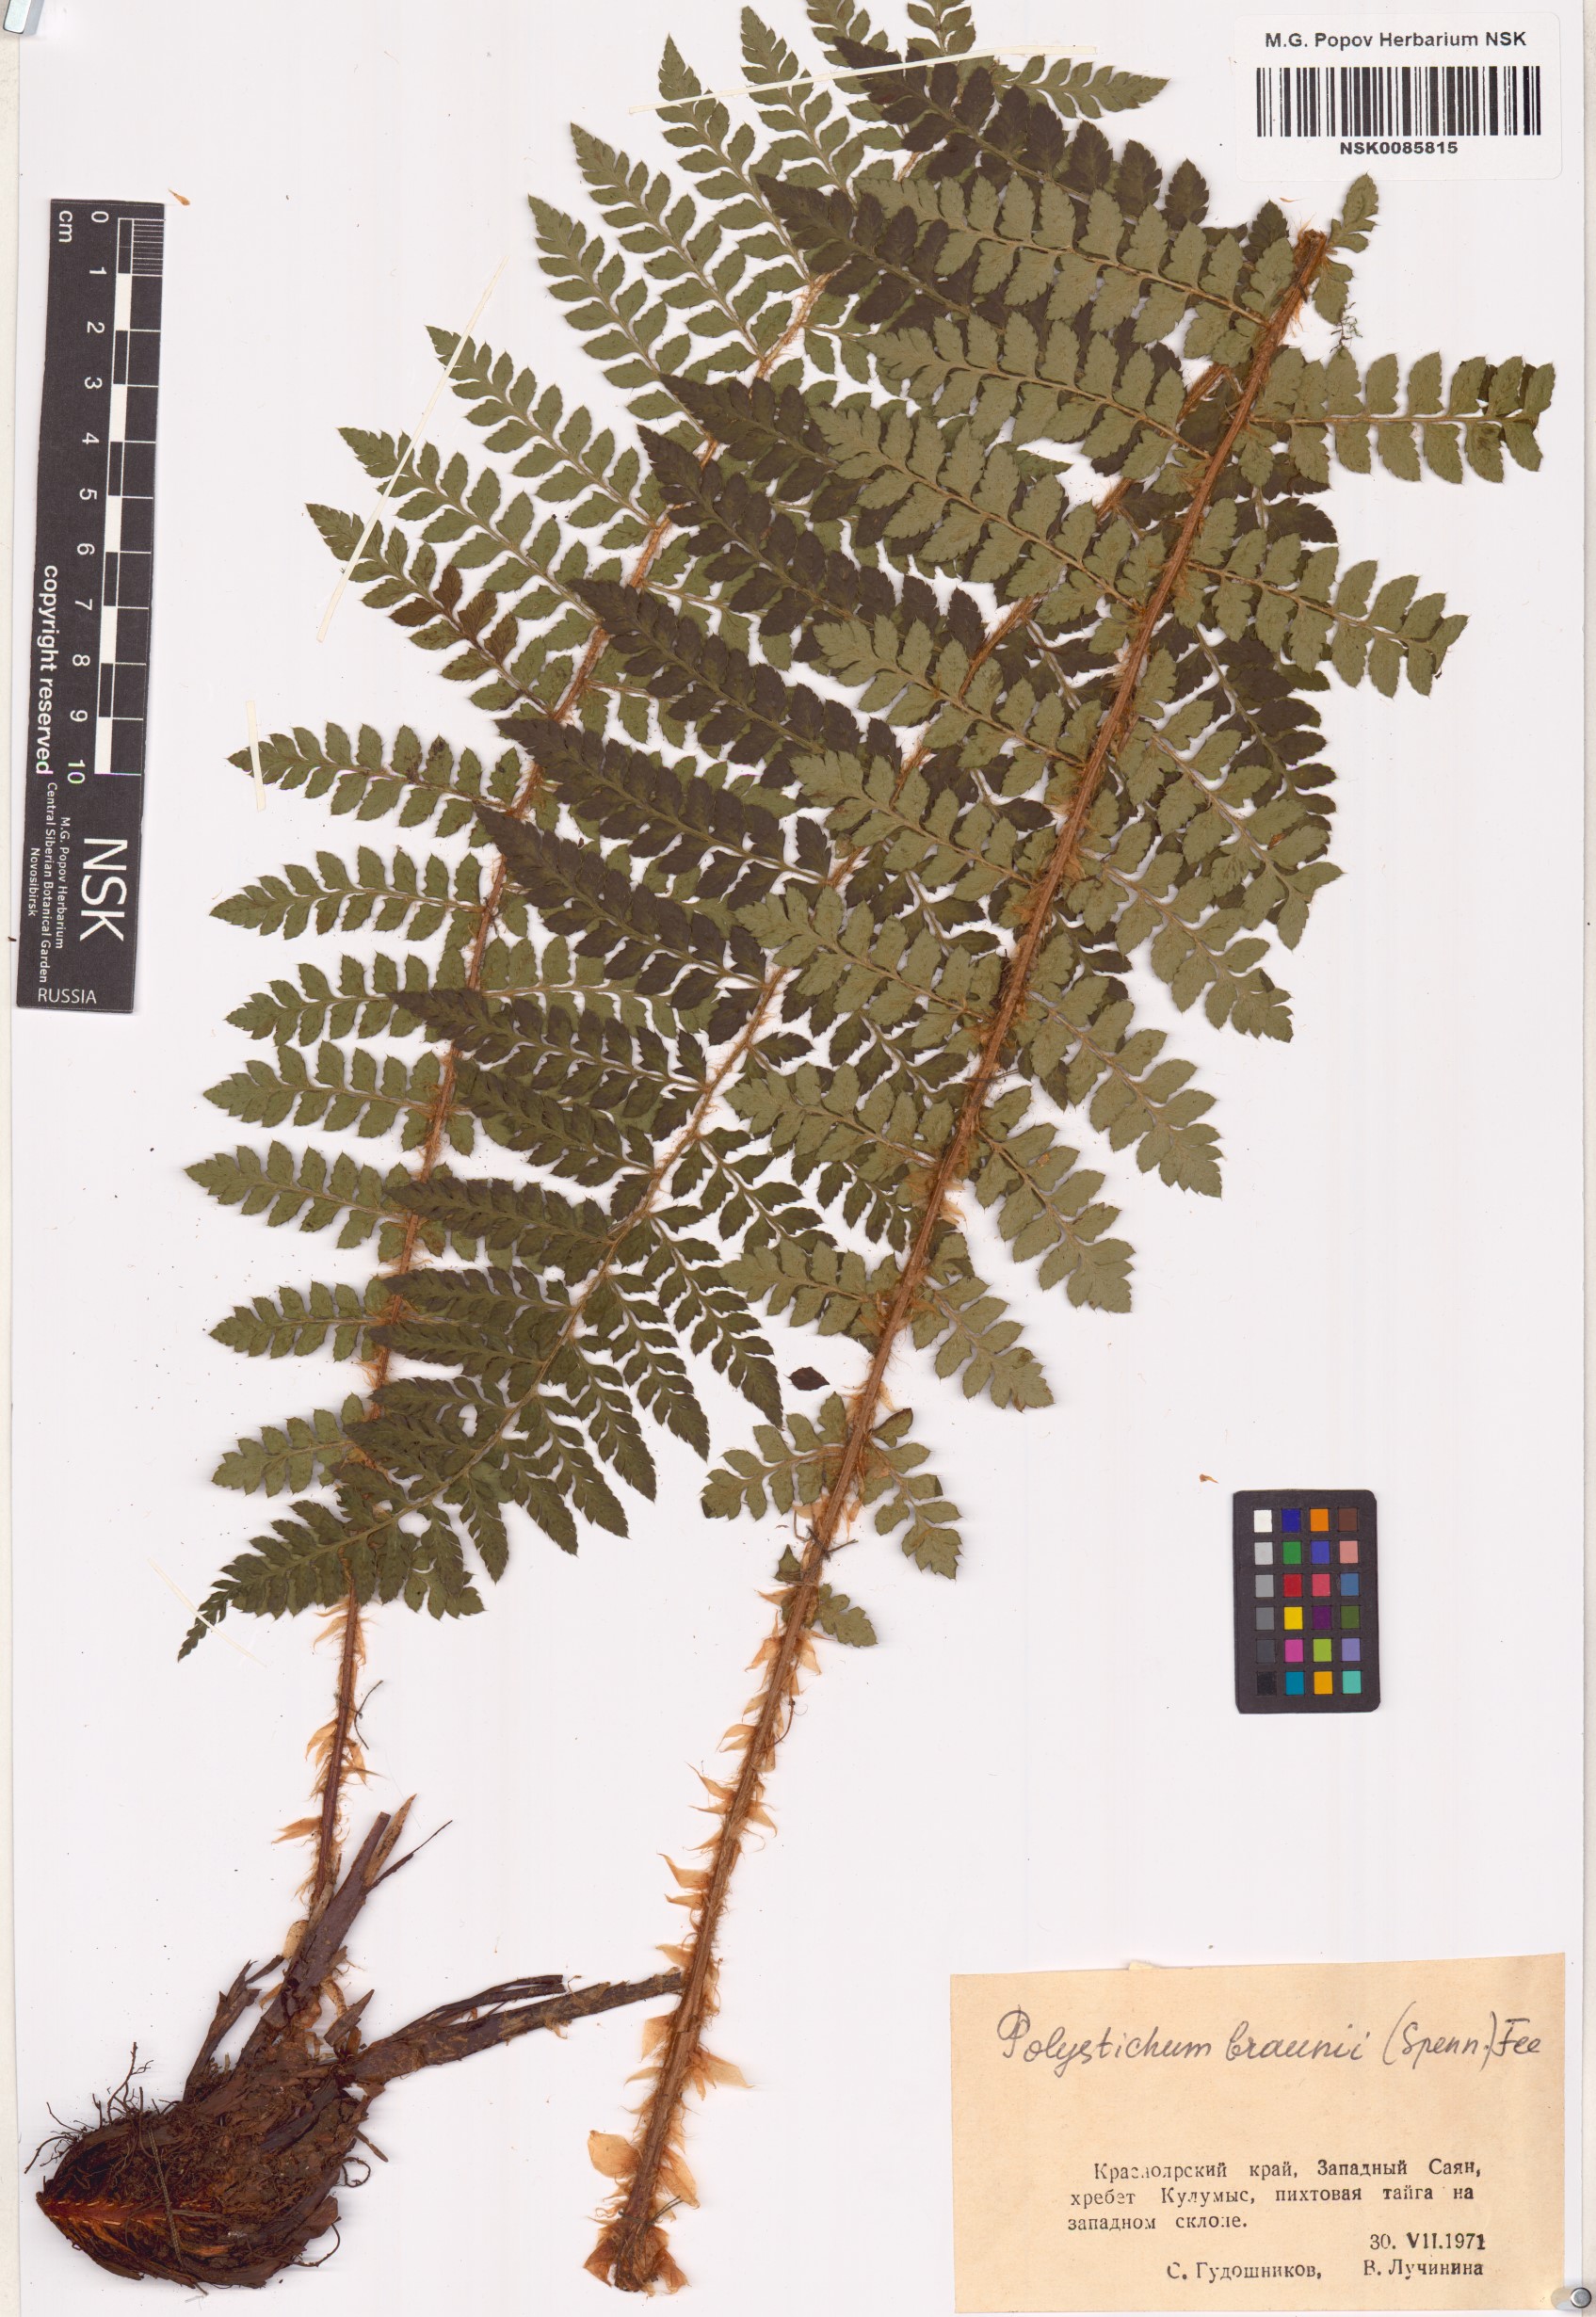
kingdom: Plantae
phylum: Tracheophyta
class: Polypodiopsida
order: Polypodiales
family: Dryopteridaceae
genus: Polystichum
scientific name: Polystichum braunii
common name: Braun's holly fern
